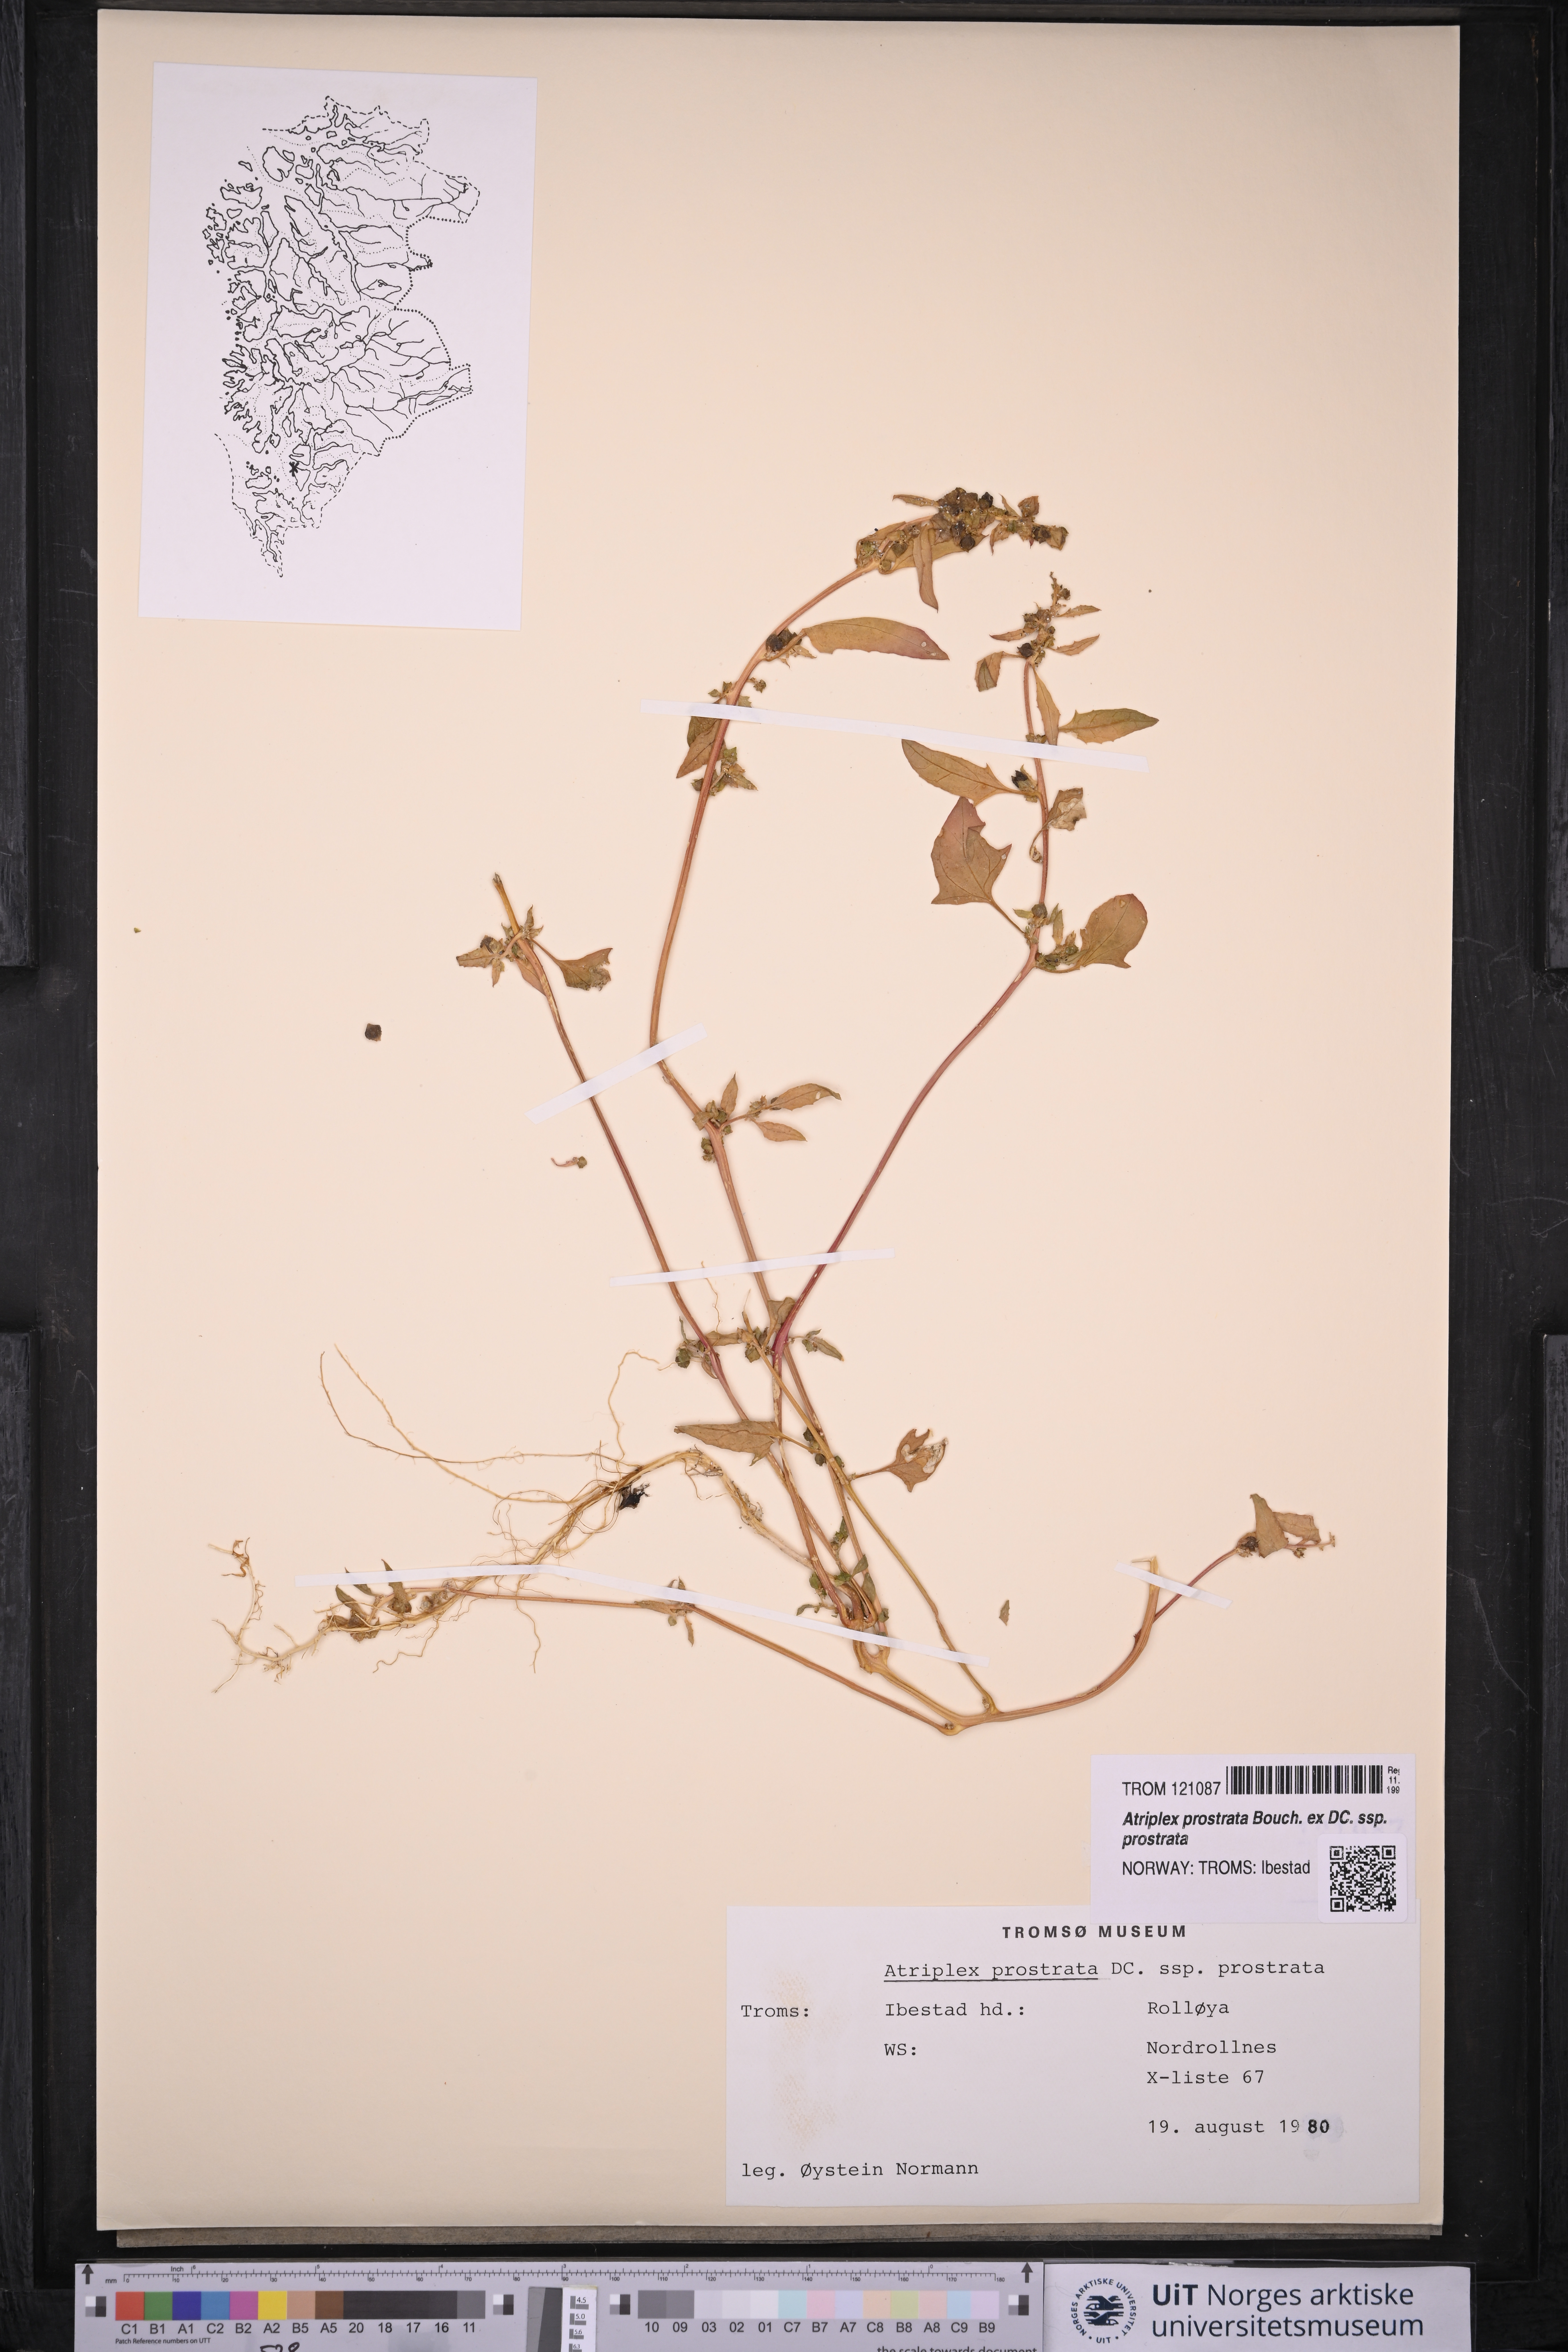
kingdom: Plantae
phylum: Tracheophyta
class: Magnoliopsida
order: Caryophyllales
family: Amaranthaceae
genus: Atriplex
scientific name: Atriplex prostrata
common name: Spear-leaved orache
